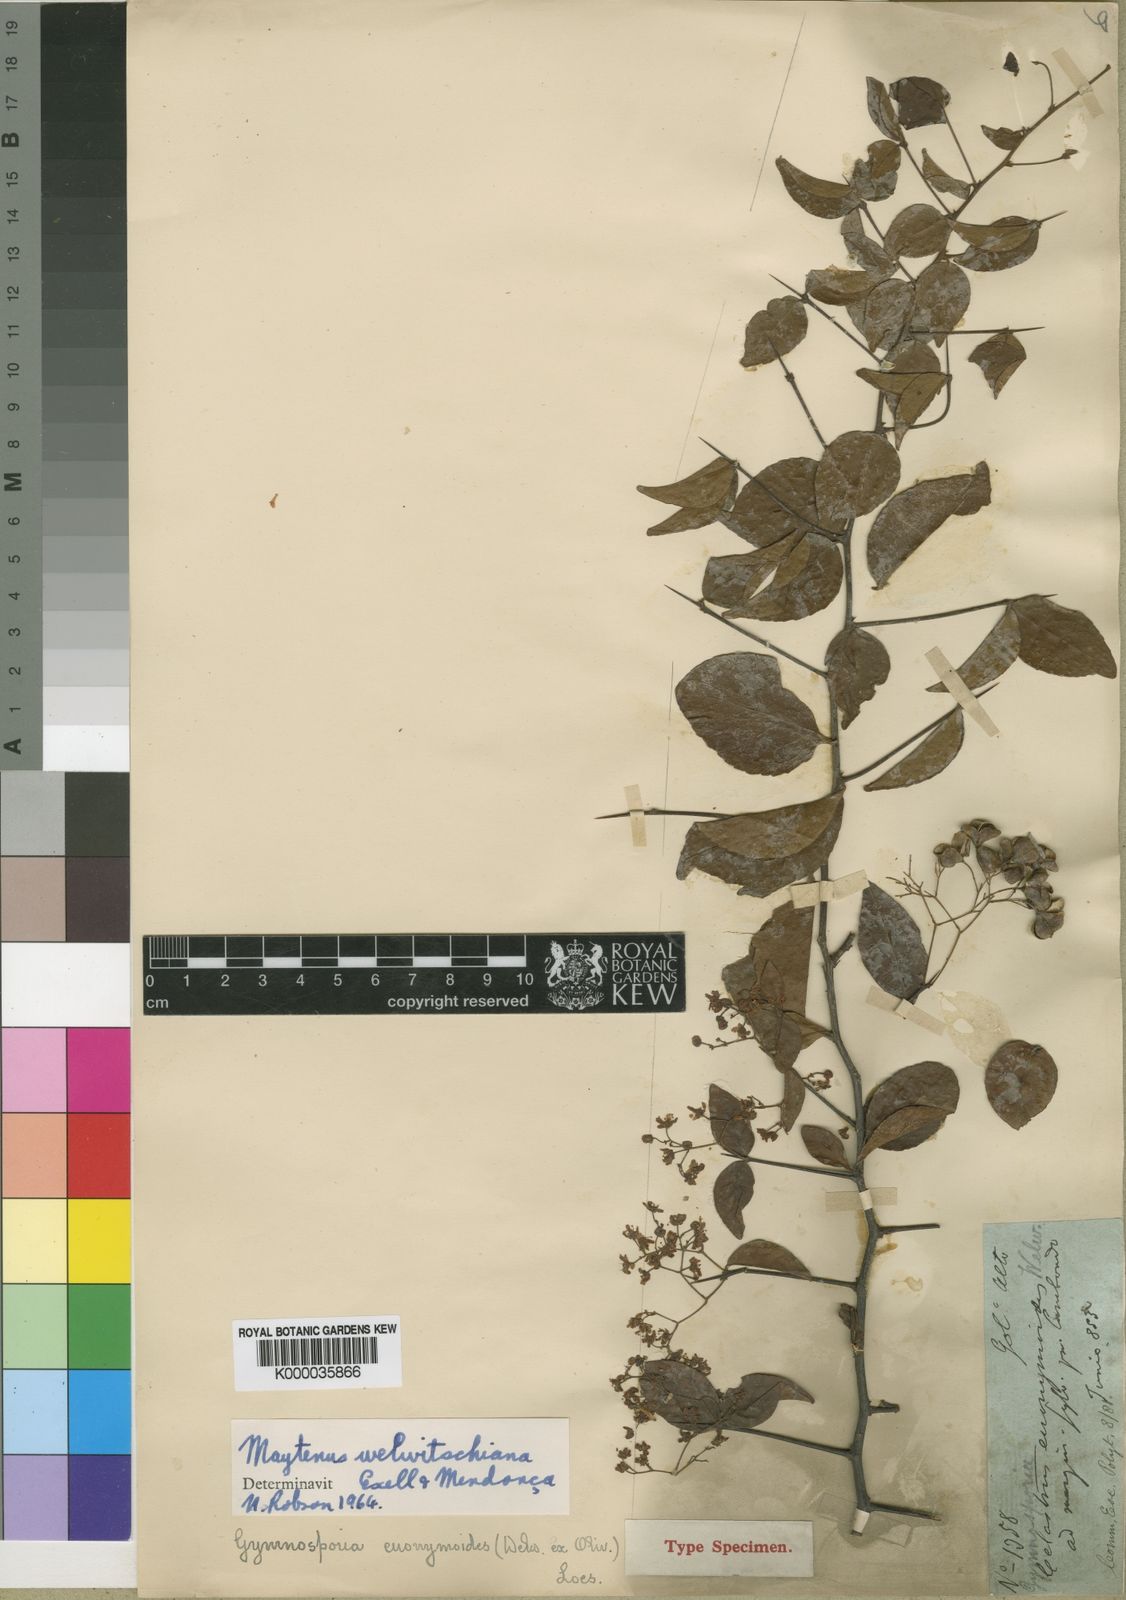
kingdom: Plantae
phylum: Tracheophyta
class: Magnoliopsida
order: Celastrales
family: Celastraceae
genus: Gymnosporia
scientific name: Gymnosporia putterlickioides
